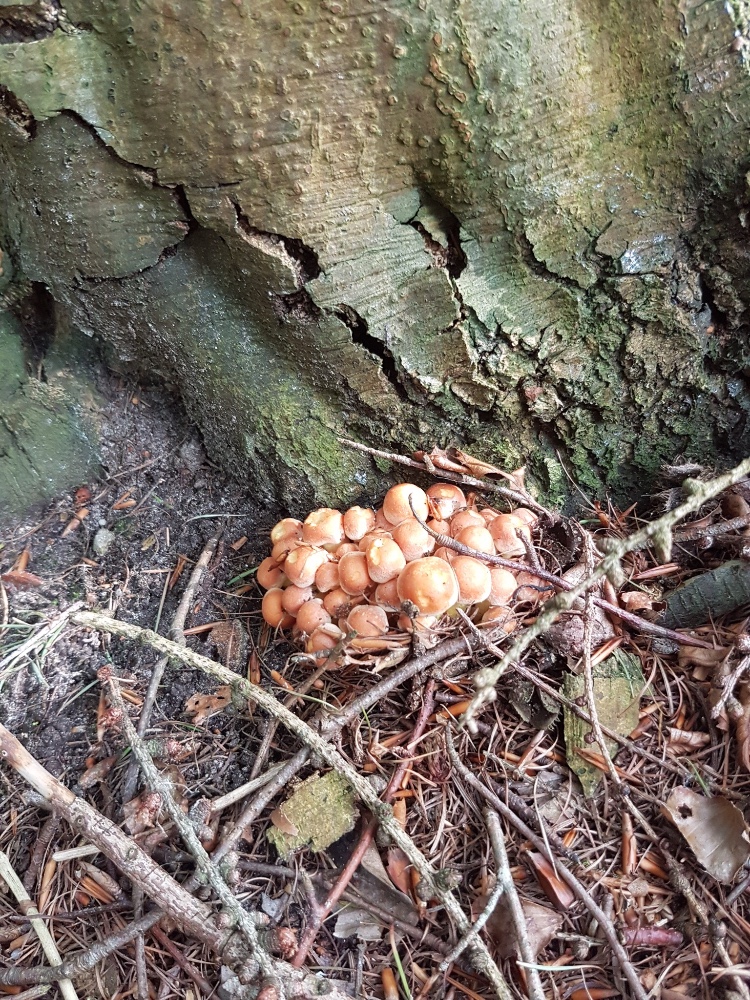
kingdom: Fungi
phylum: Basidiomycota
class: Agaricomycetes
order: Agaricales
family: Strophariaceae
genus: Hypholoma
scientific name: Hypholoma fasciculare
